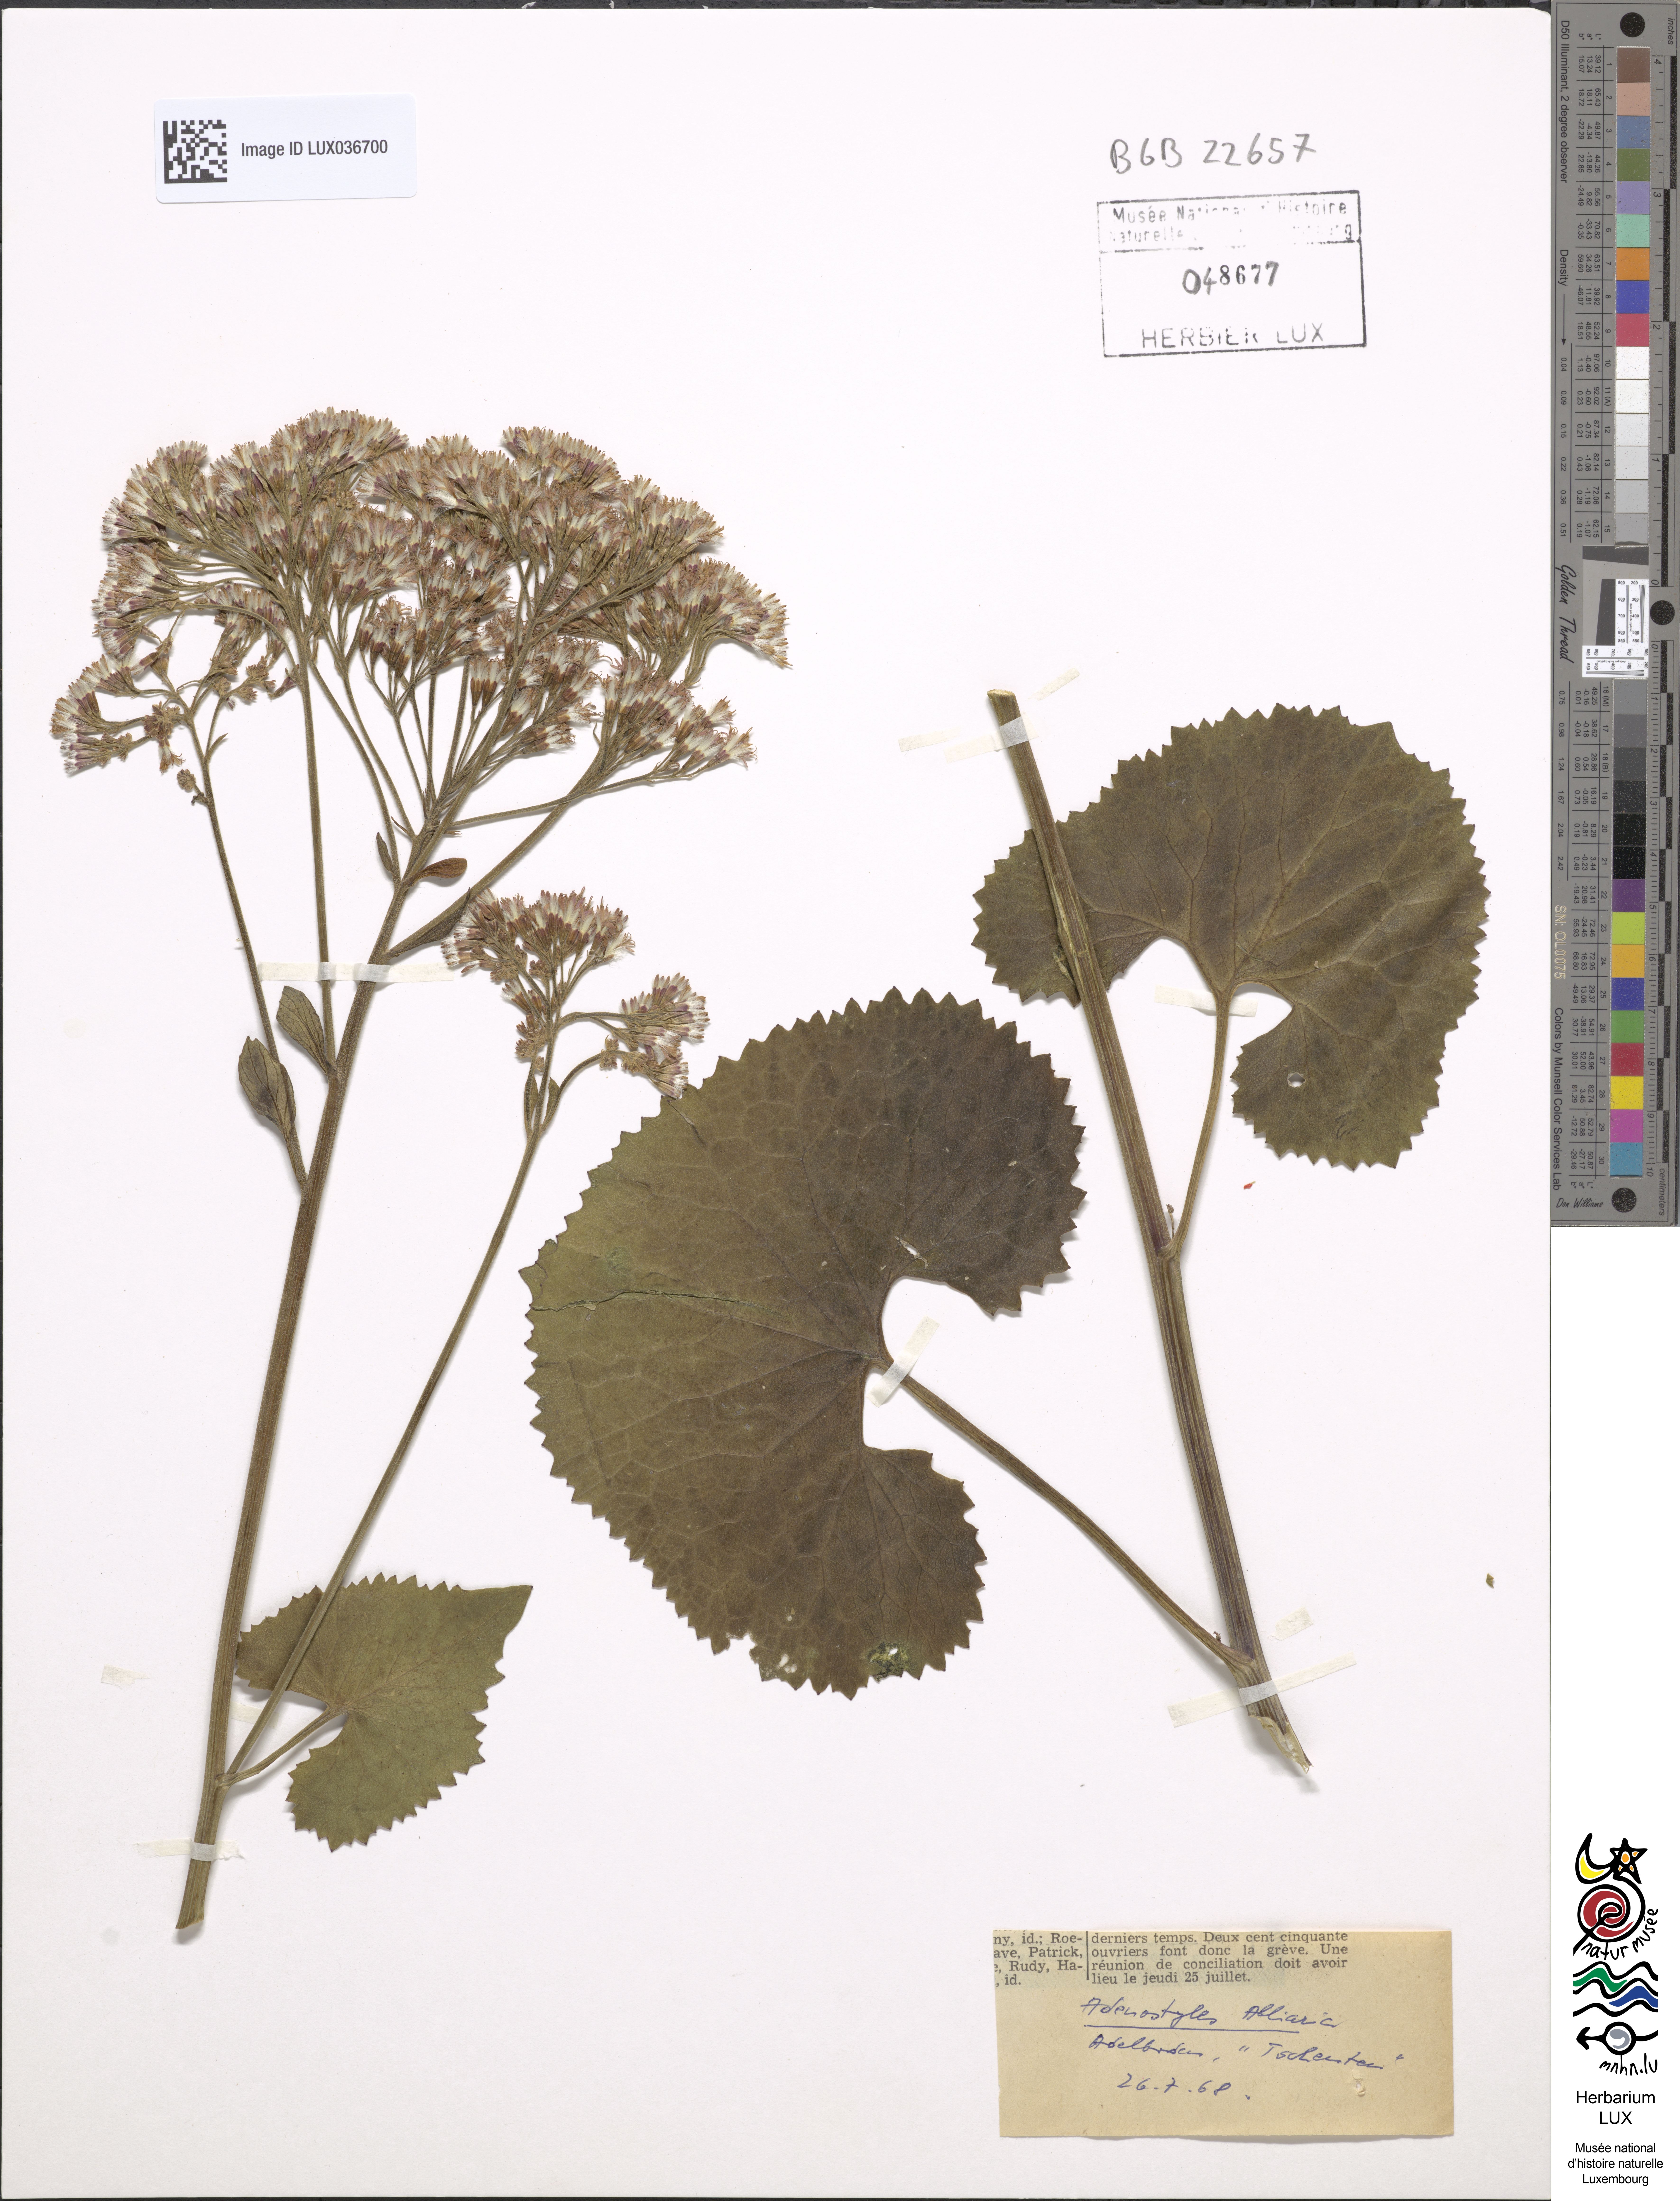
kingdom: Plantae
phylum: Tracheophyta
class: Magnoliopsida
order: Asterales
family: Asteraceae
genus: Adenostyles
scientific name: Adenostyles alliariae
